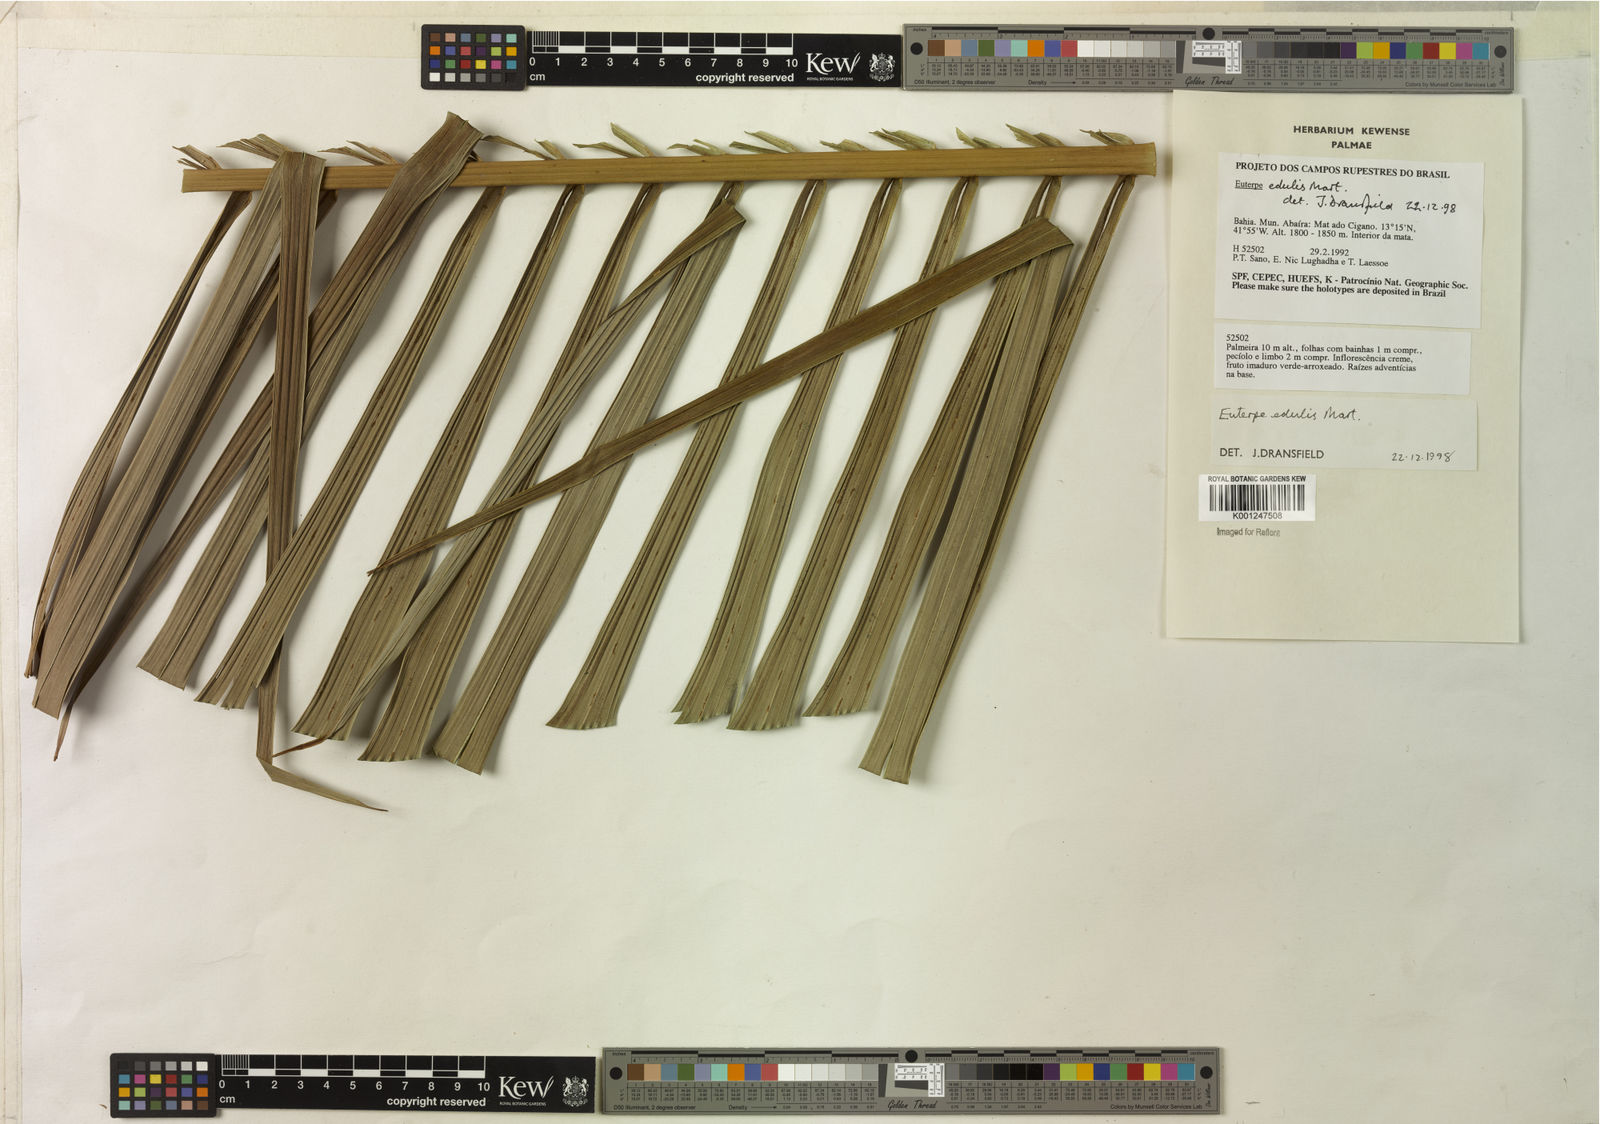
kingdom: Plantae
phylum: Tracheophyta
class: Liliopsida
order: Arecales
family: Arecaceae
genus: Euterpe
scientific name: Euterpe edulis
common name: Assai palm
